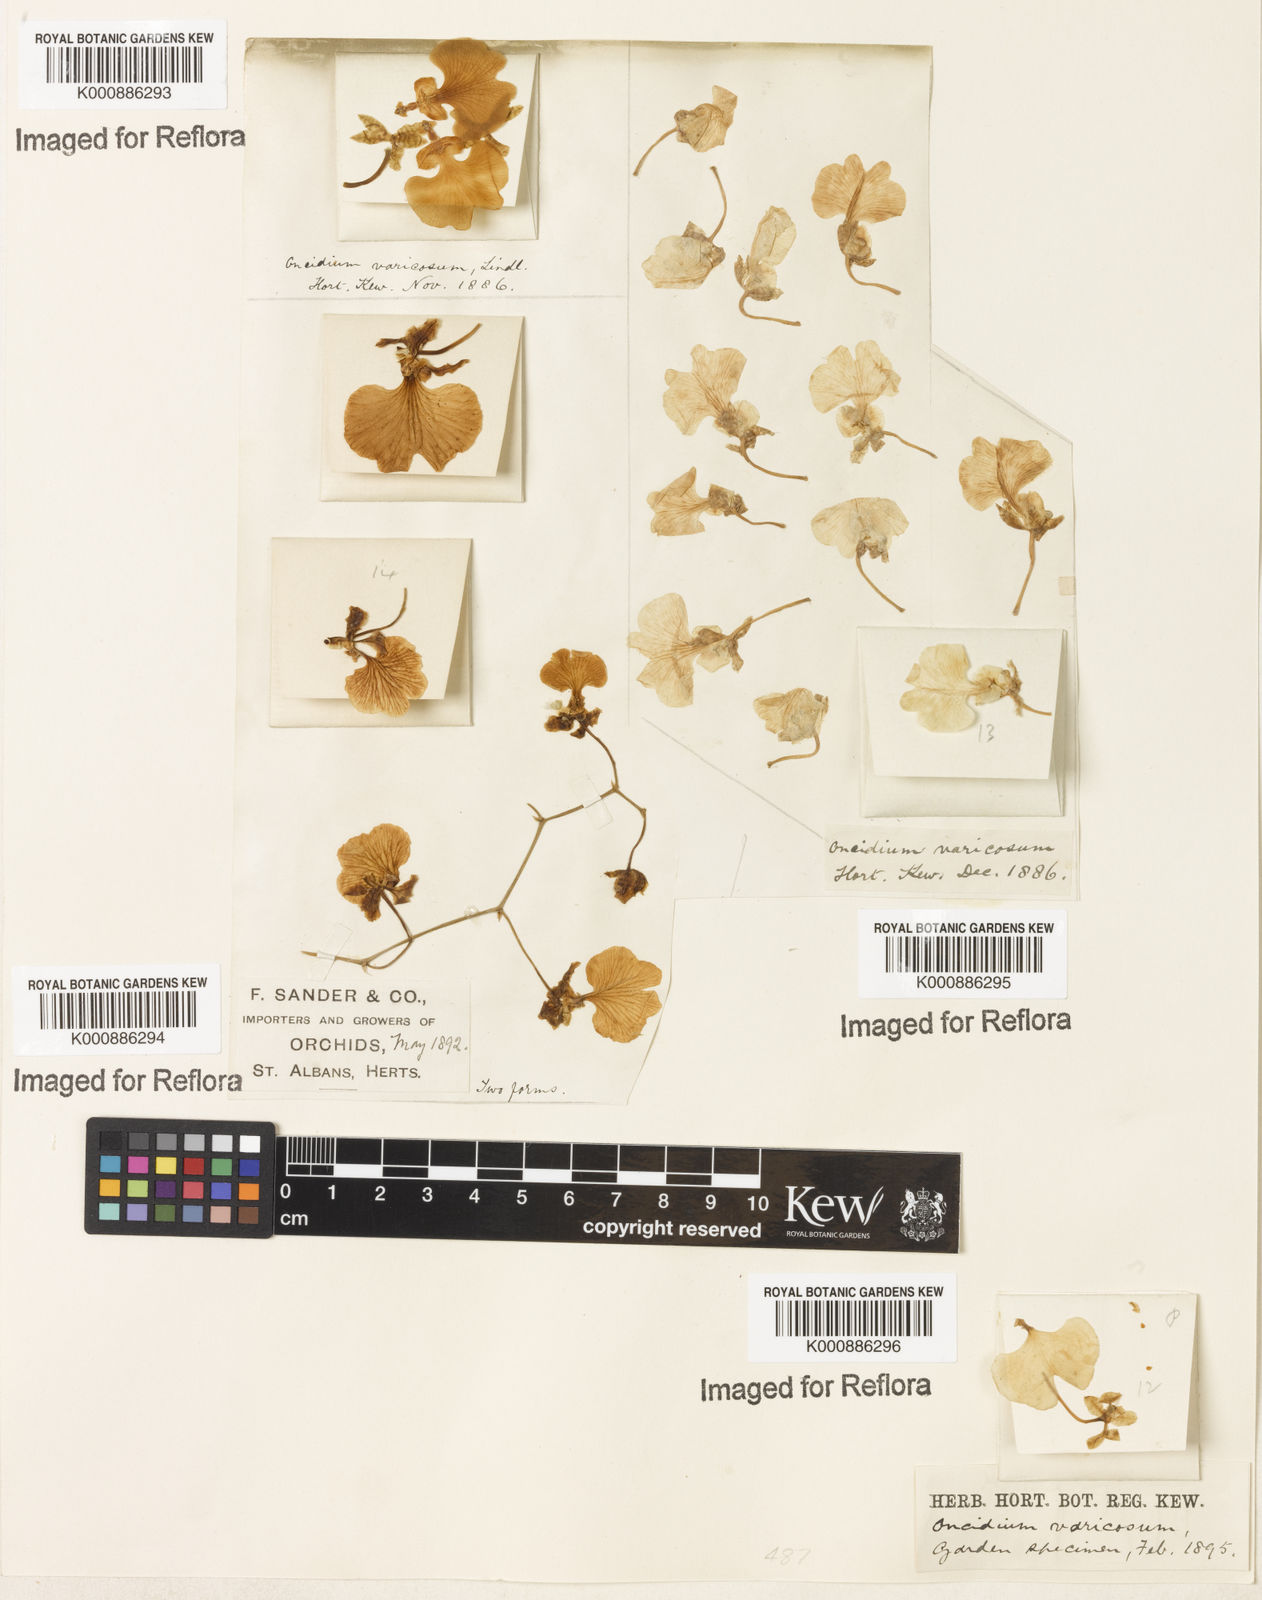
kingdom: Plantae
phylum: Tracheophyta
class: Liliopsida
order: Asparagales
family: Orchidaceae
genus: Gomesa
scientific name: Gomesa varicosa
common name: Dancing ladies
